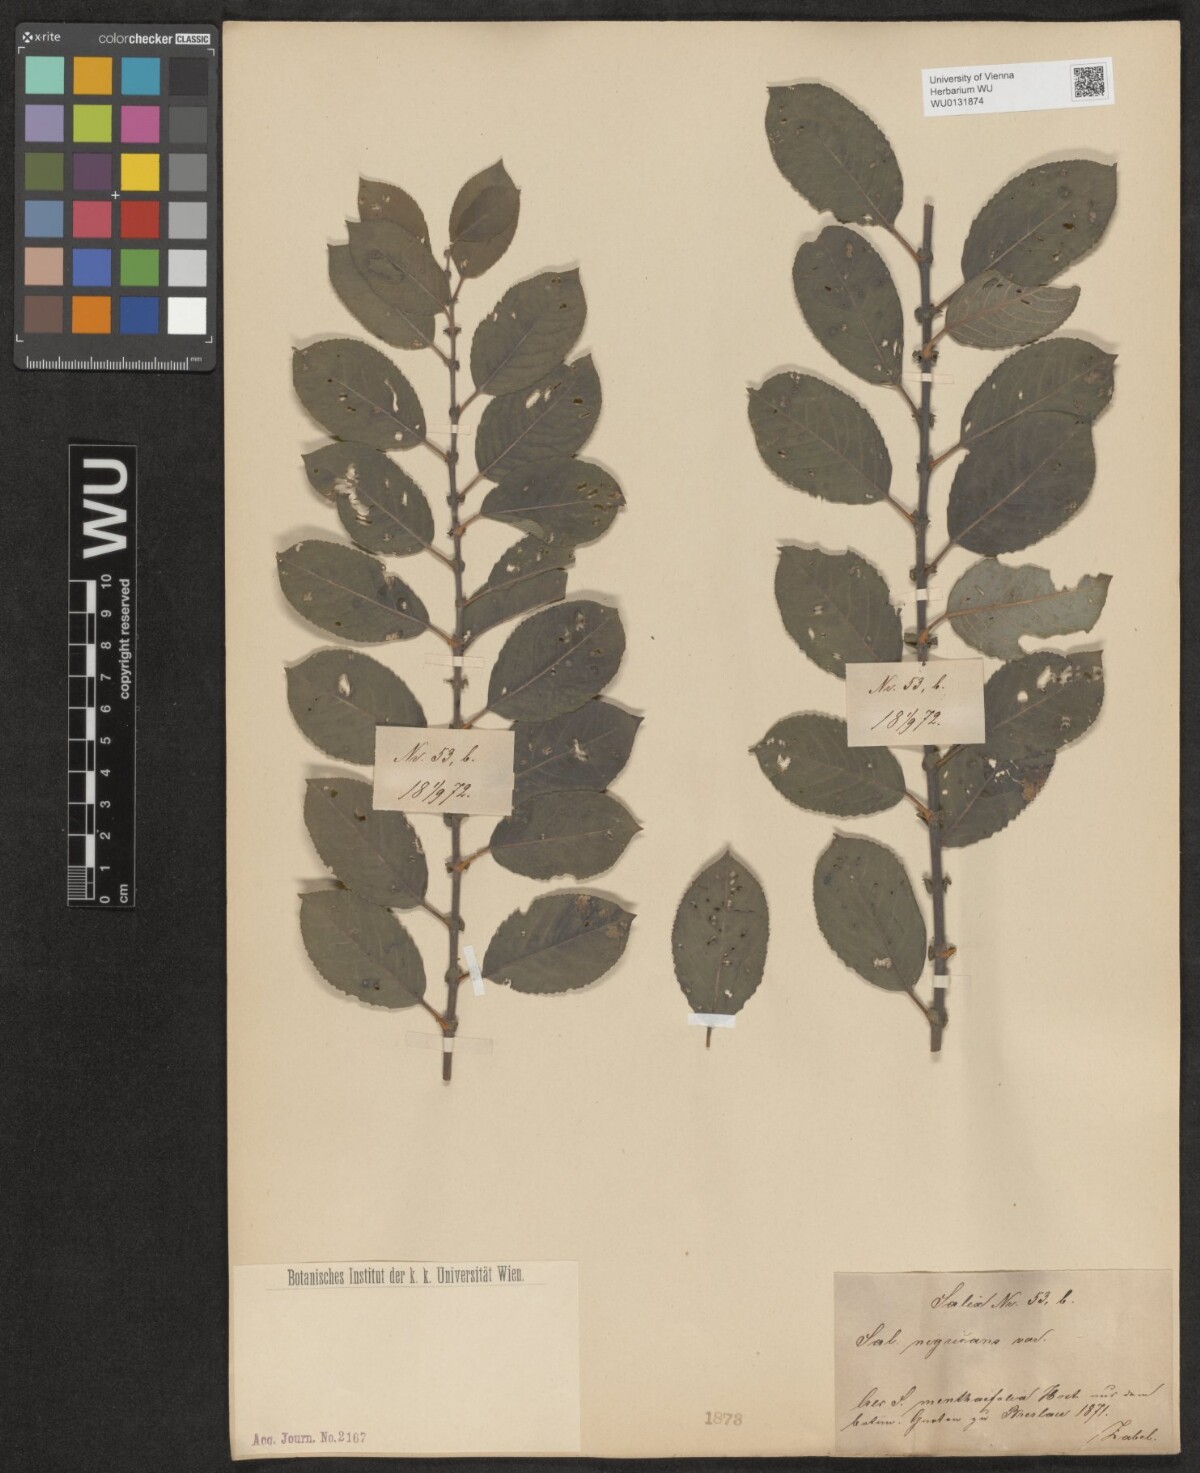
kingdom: Plantae
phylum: Tracheophyta
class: Magnoliopsida
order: Malpighiales
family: Salicaceae
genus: Salix
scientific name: Salix myrsinifolia
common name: Dark-leaved willow
